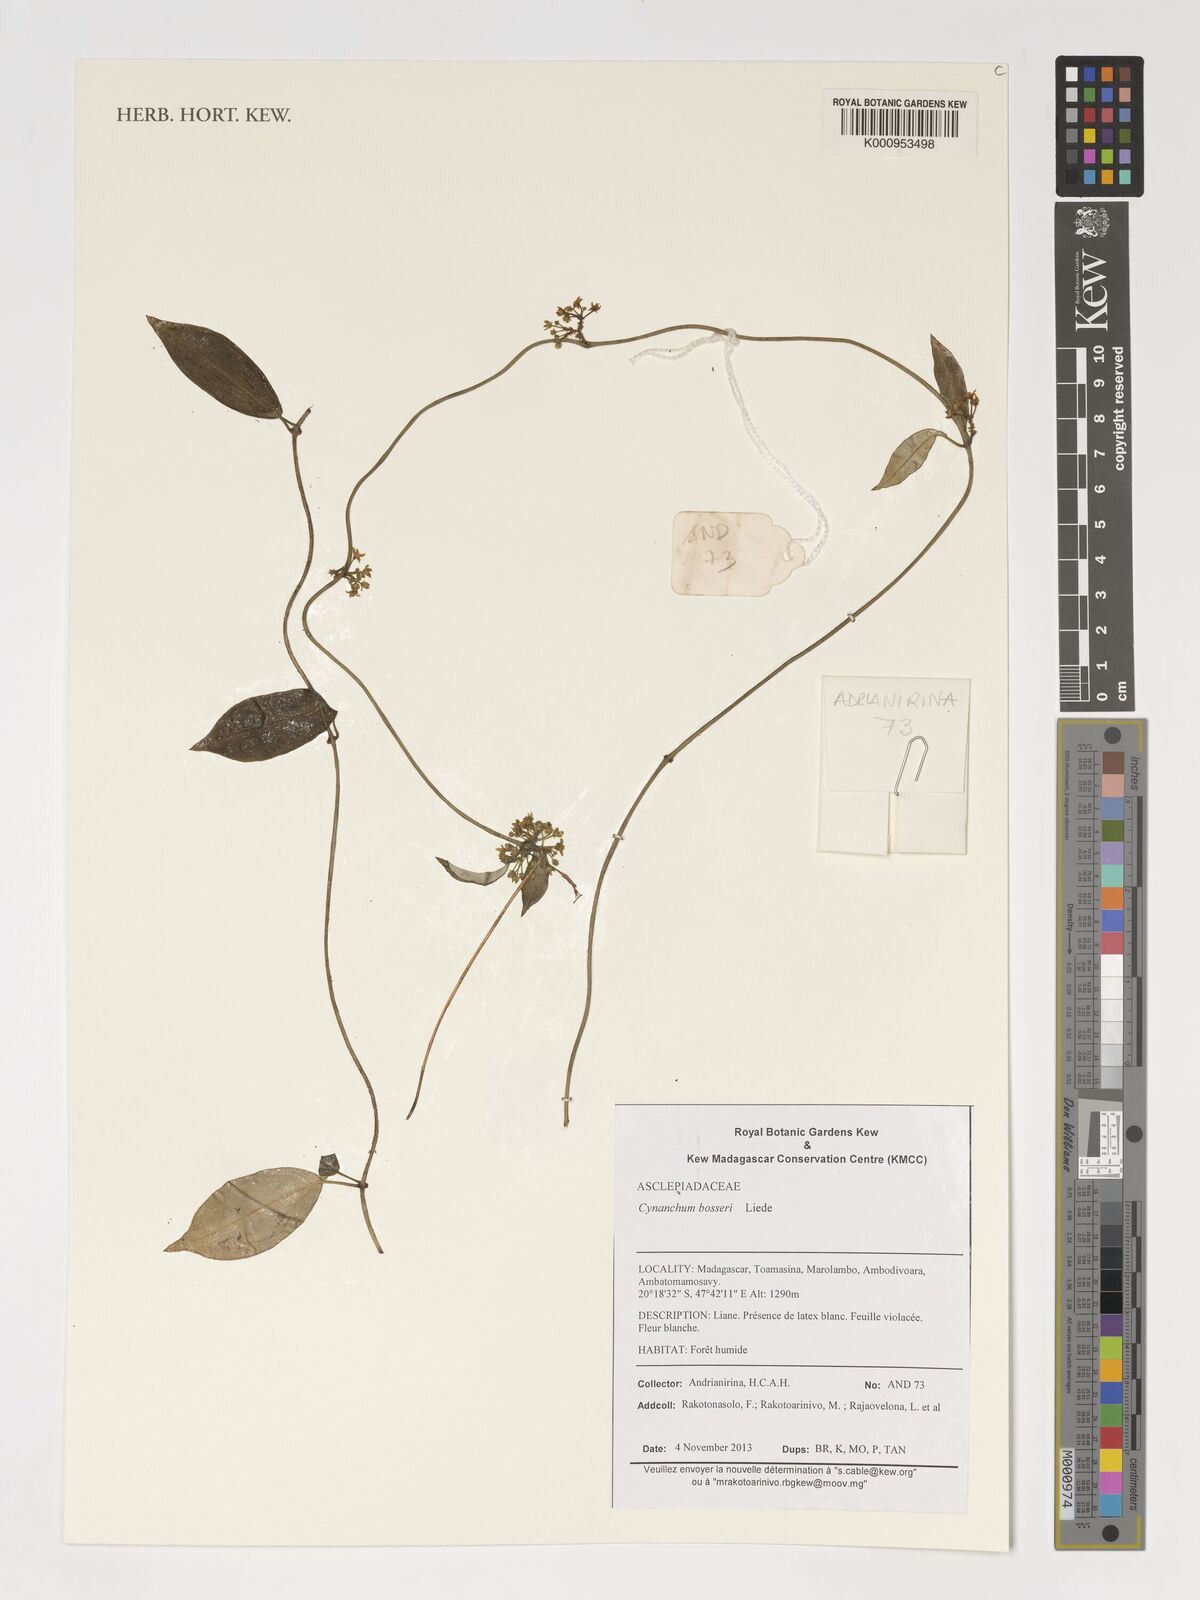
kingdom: Plantae
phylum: Tracheophyta
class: Magnoliopsida
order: Gentianales
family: Apocynaceae
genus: Cynanchum
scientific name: Cynanchum bosseri
